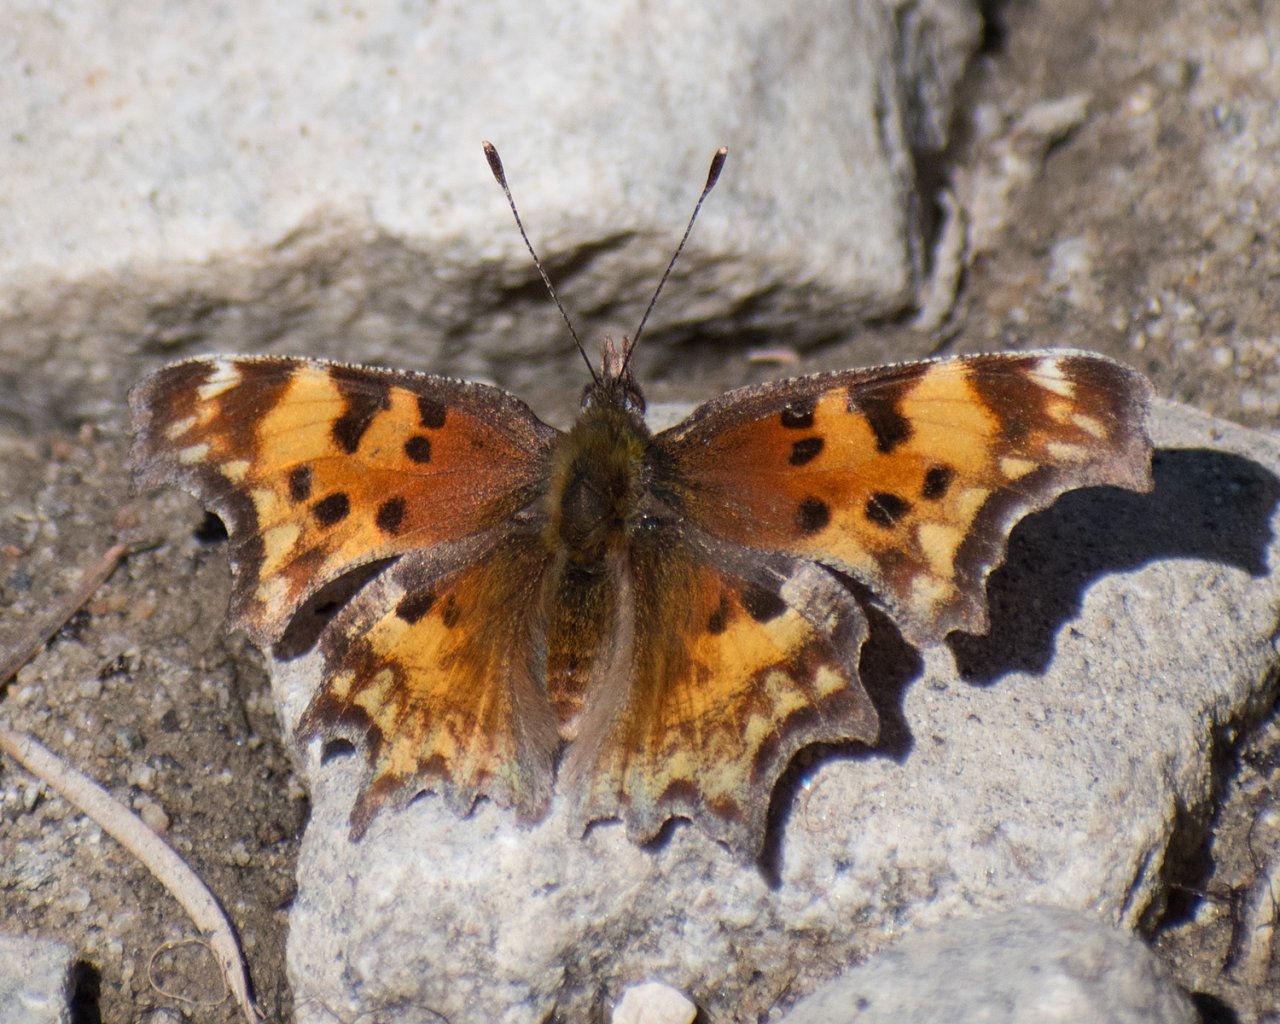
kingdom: Animalia
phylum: Arthropoda
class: Insecta
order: Lepidoptera
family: Nymphalidae
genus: Polygonia
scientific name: Polygonia gracilis
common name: Hoary Comma
